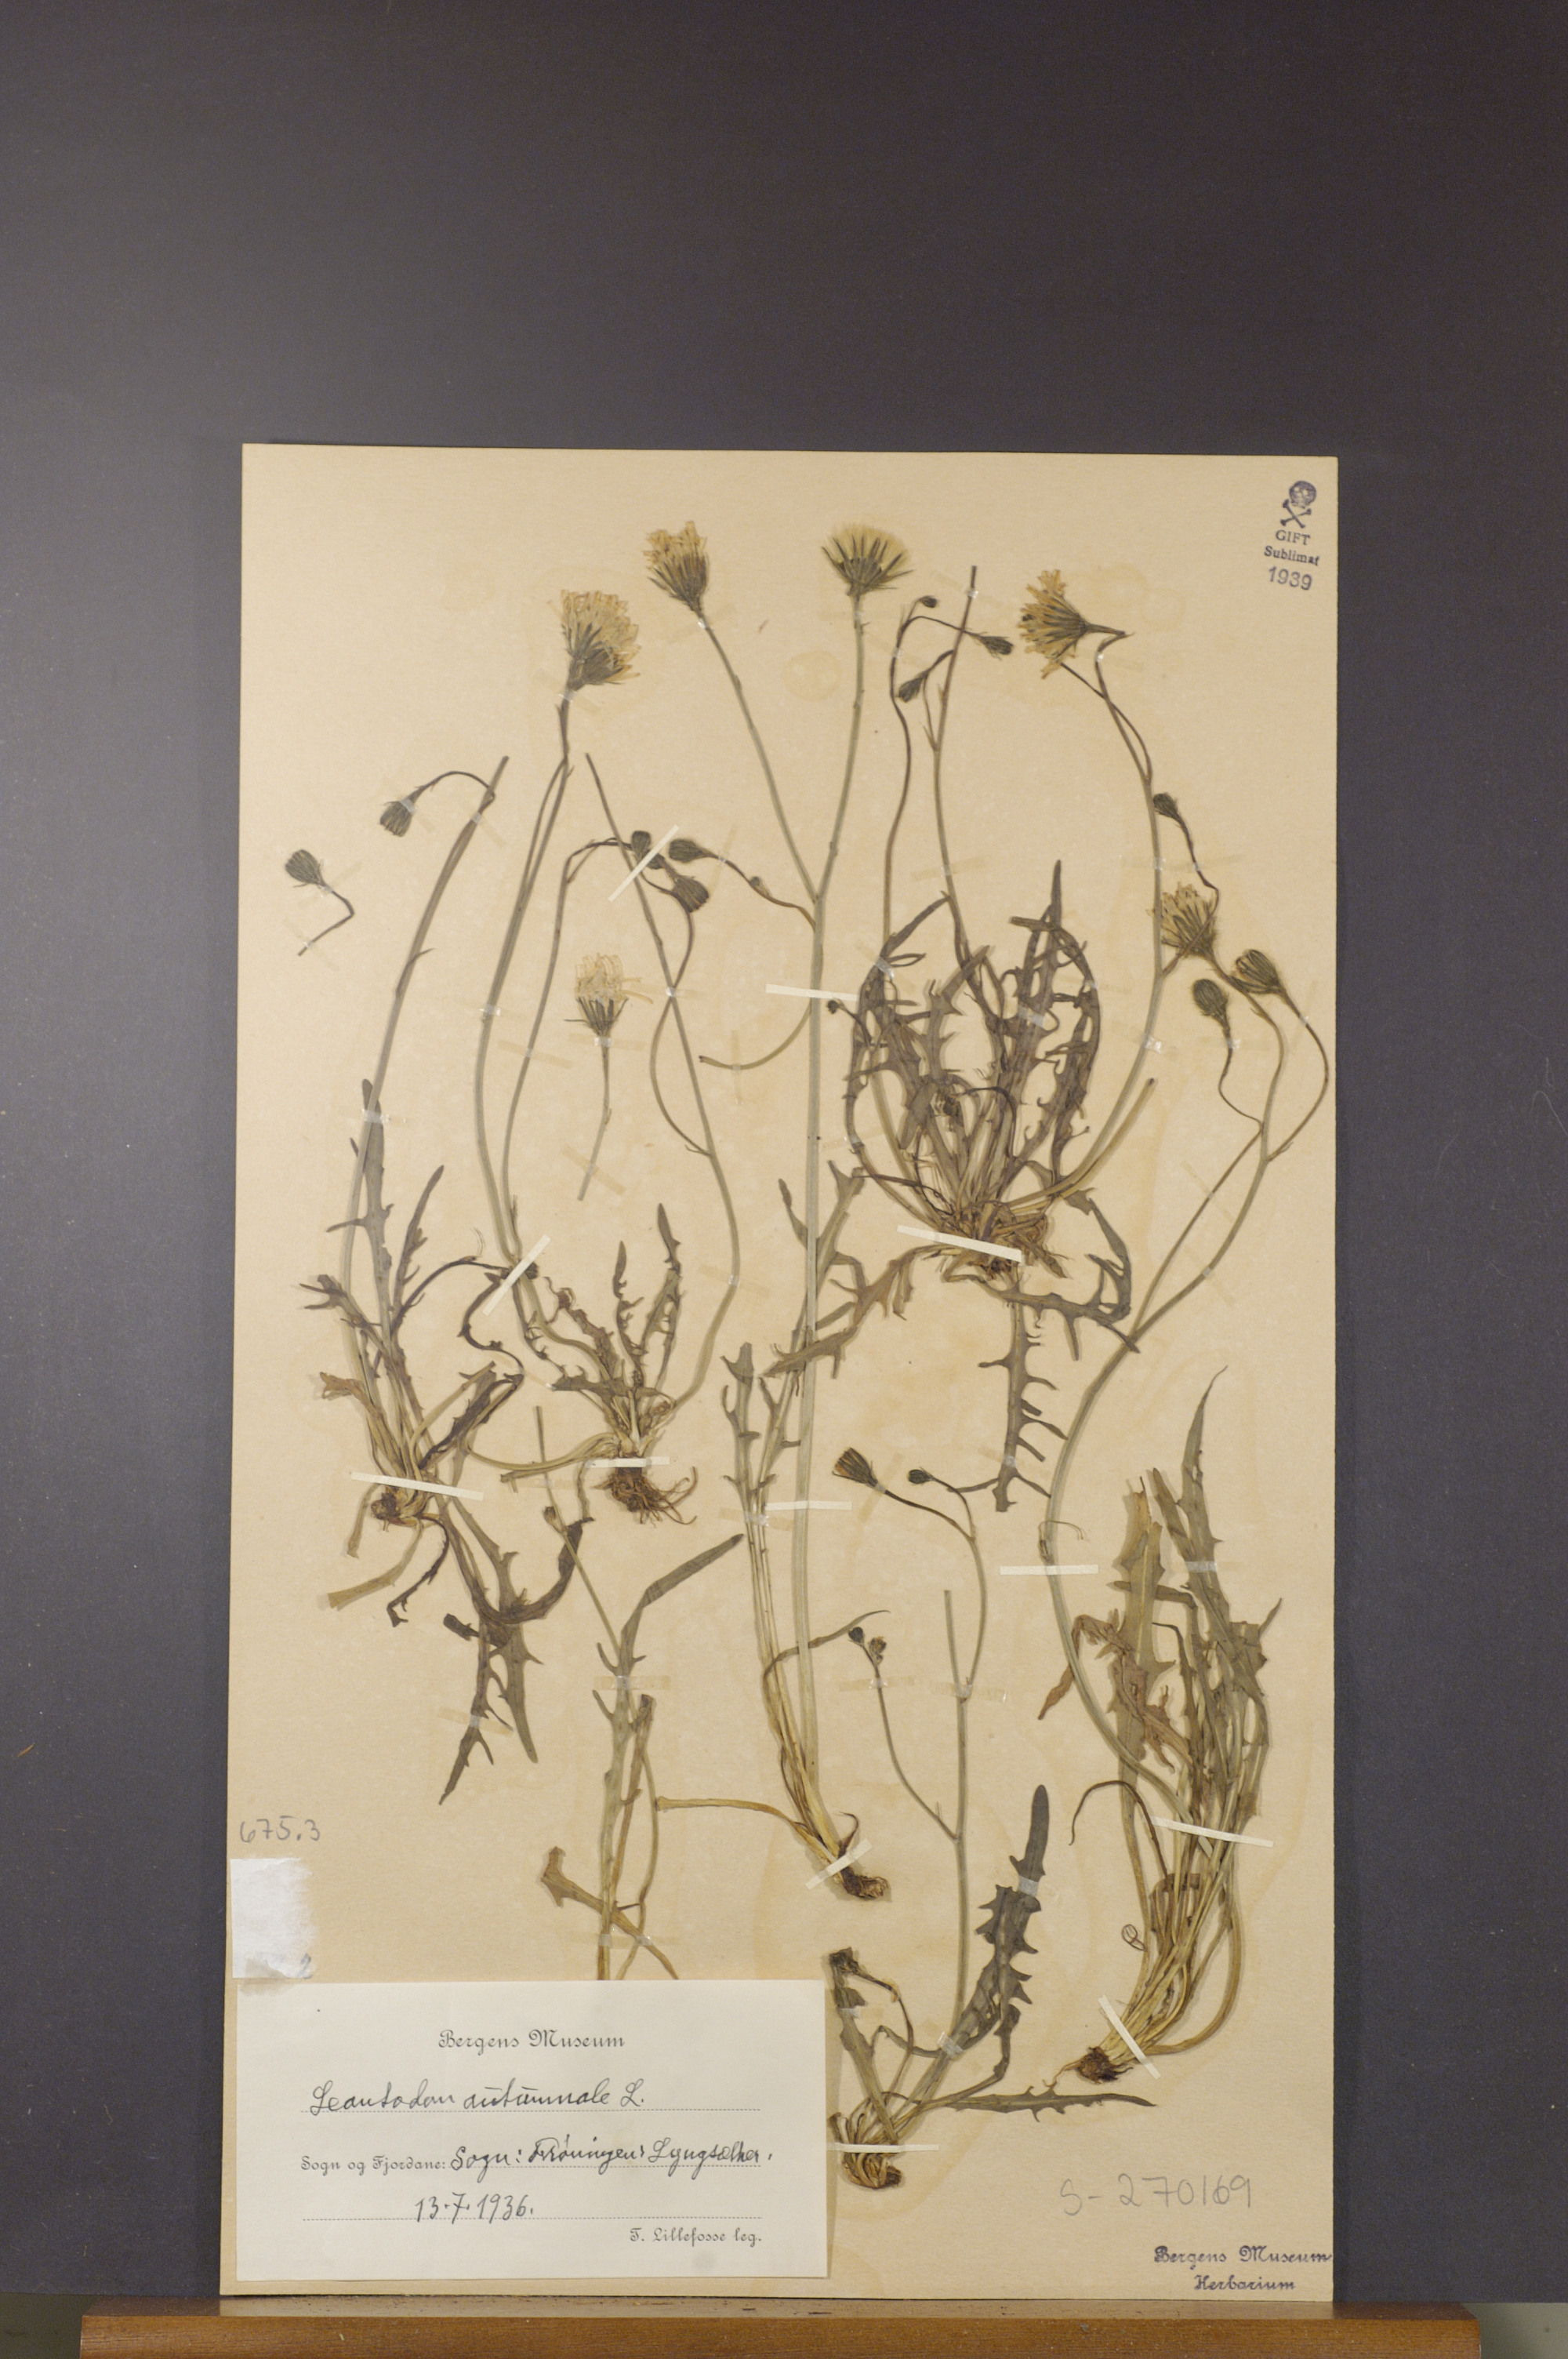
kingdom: Plantae
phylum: Tracheophyta
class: Magnoliopsida
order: Asterales
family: Asteraceae
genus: Scorzoneroides
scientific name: Scorzoneroides autumnalis
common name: Autumn hawkbit
